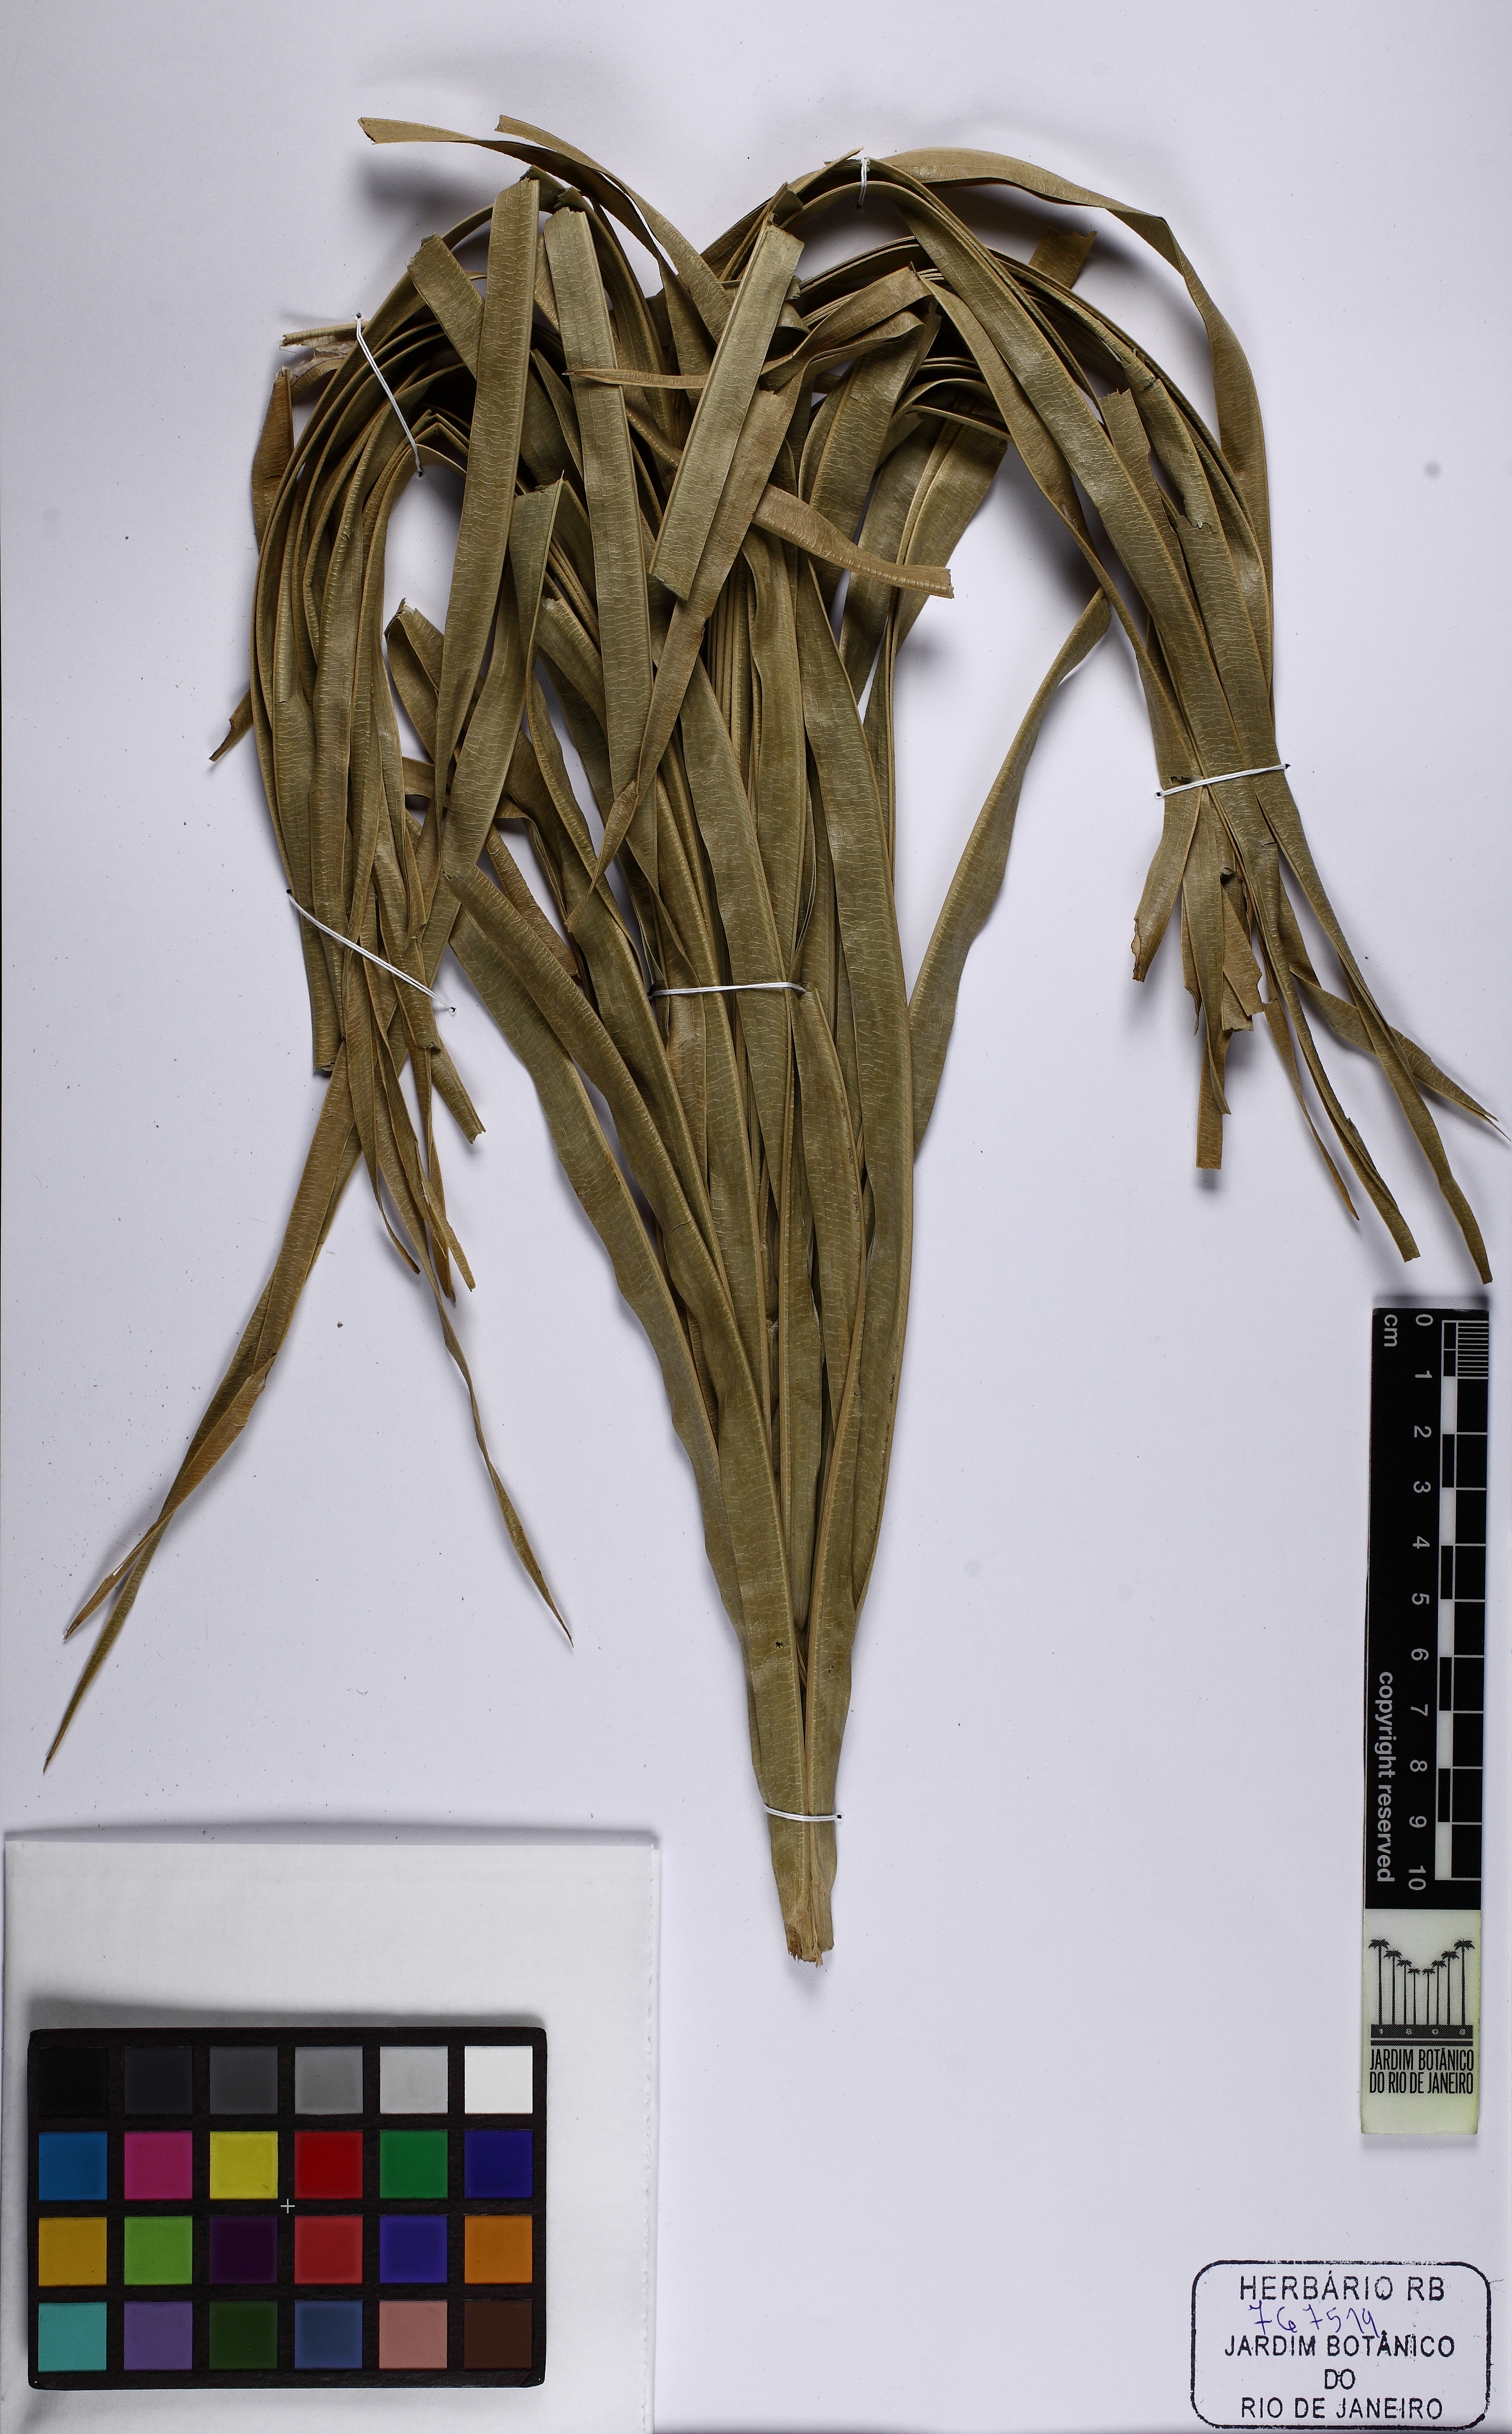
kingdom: Plantae
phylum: Tracheophyta
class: Liliopsida
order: Arecales
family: Arecaceae
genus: Syagrus
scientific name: Syagrus oleracea
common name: Catole palm
